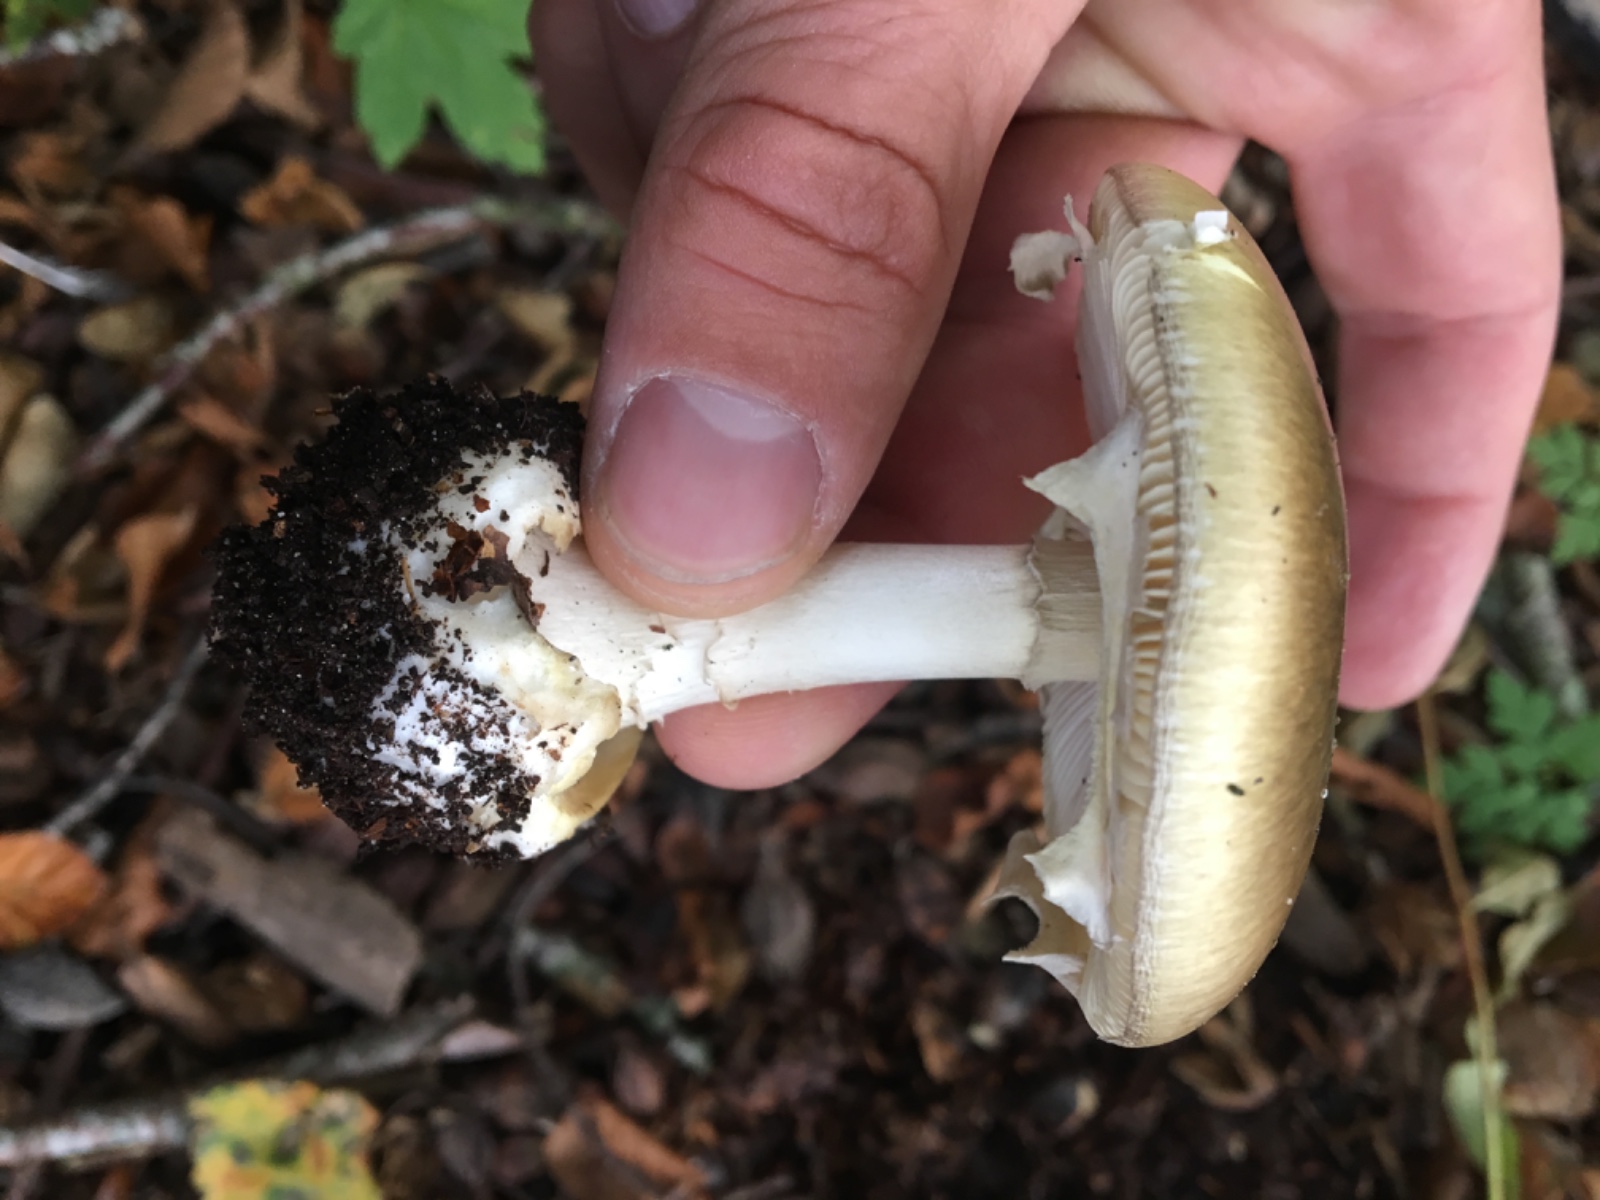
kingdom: Fungi
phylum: Basidiomycota
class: Agaricomycetes
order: Agaricales
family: Amanitaceae
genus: Amanita
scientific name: Amanita phalloides
